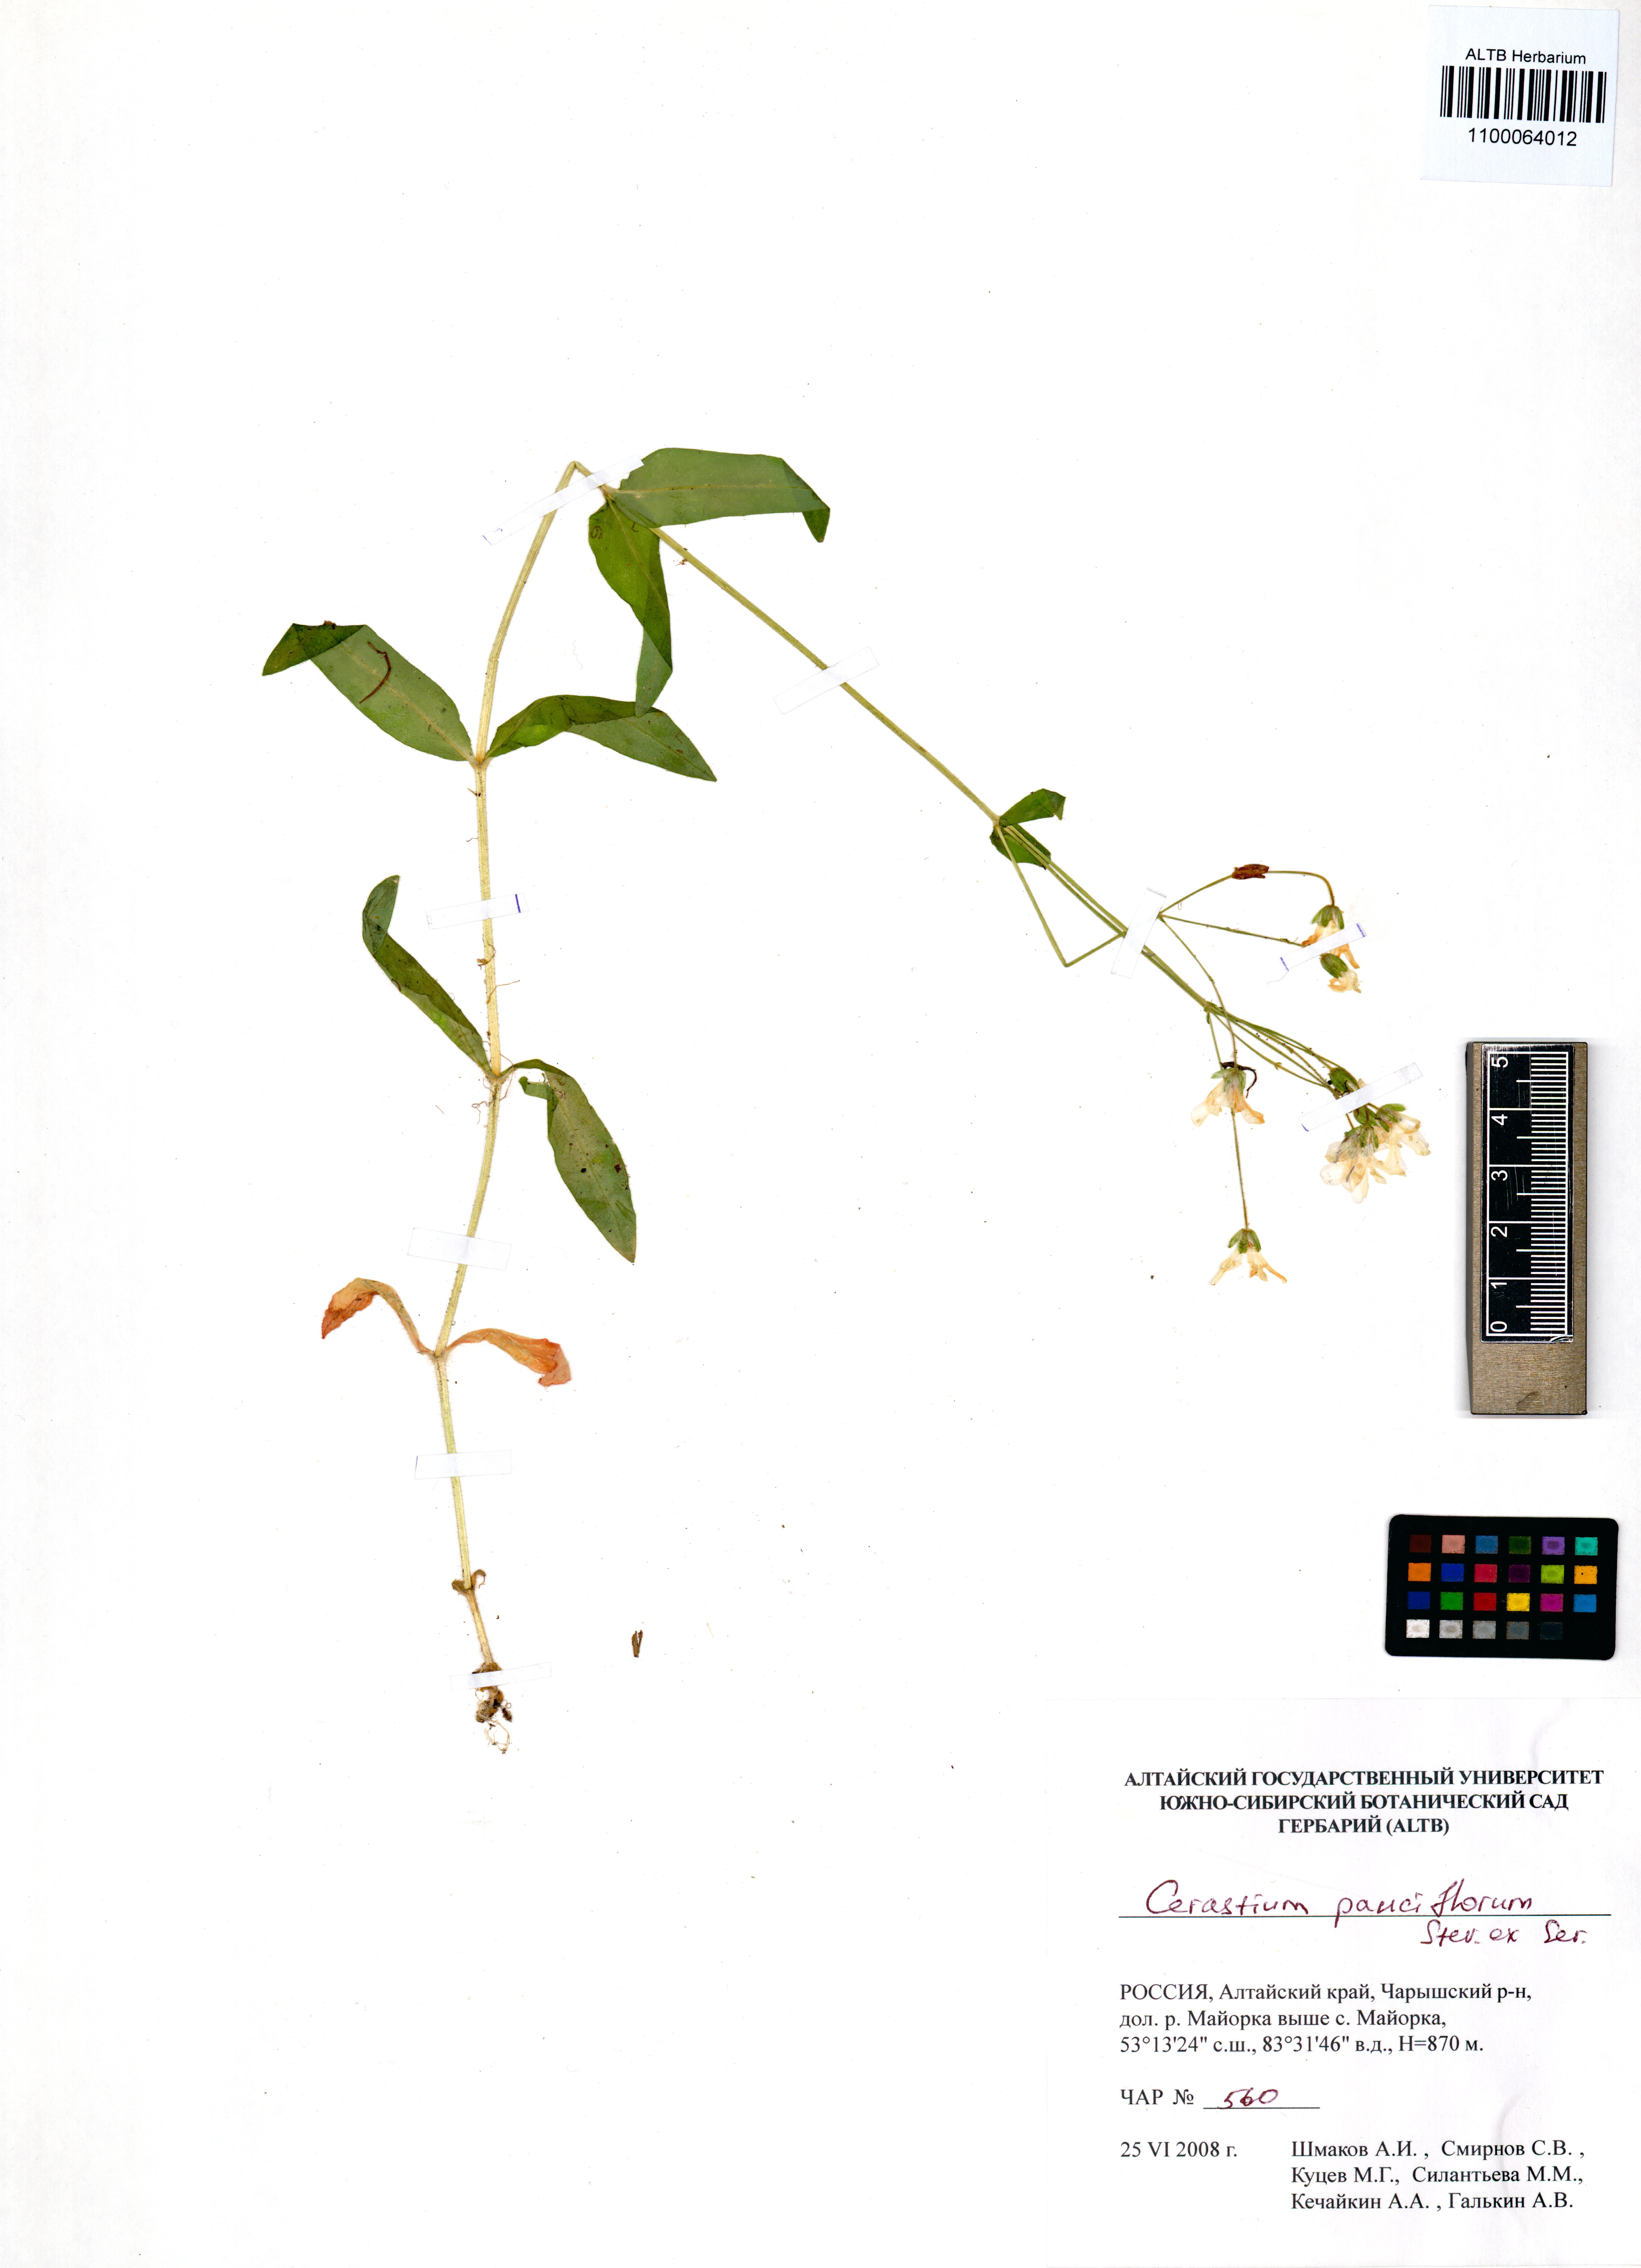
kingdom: Plantae
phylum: Tracheophyta
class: Magnoliopsida
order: Caryophyllales
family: Caryophyllaceae
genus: Cerastium
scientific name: Cerastium pauciflorum
